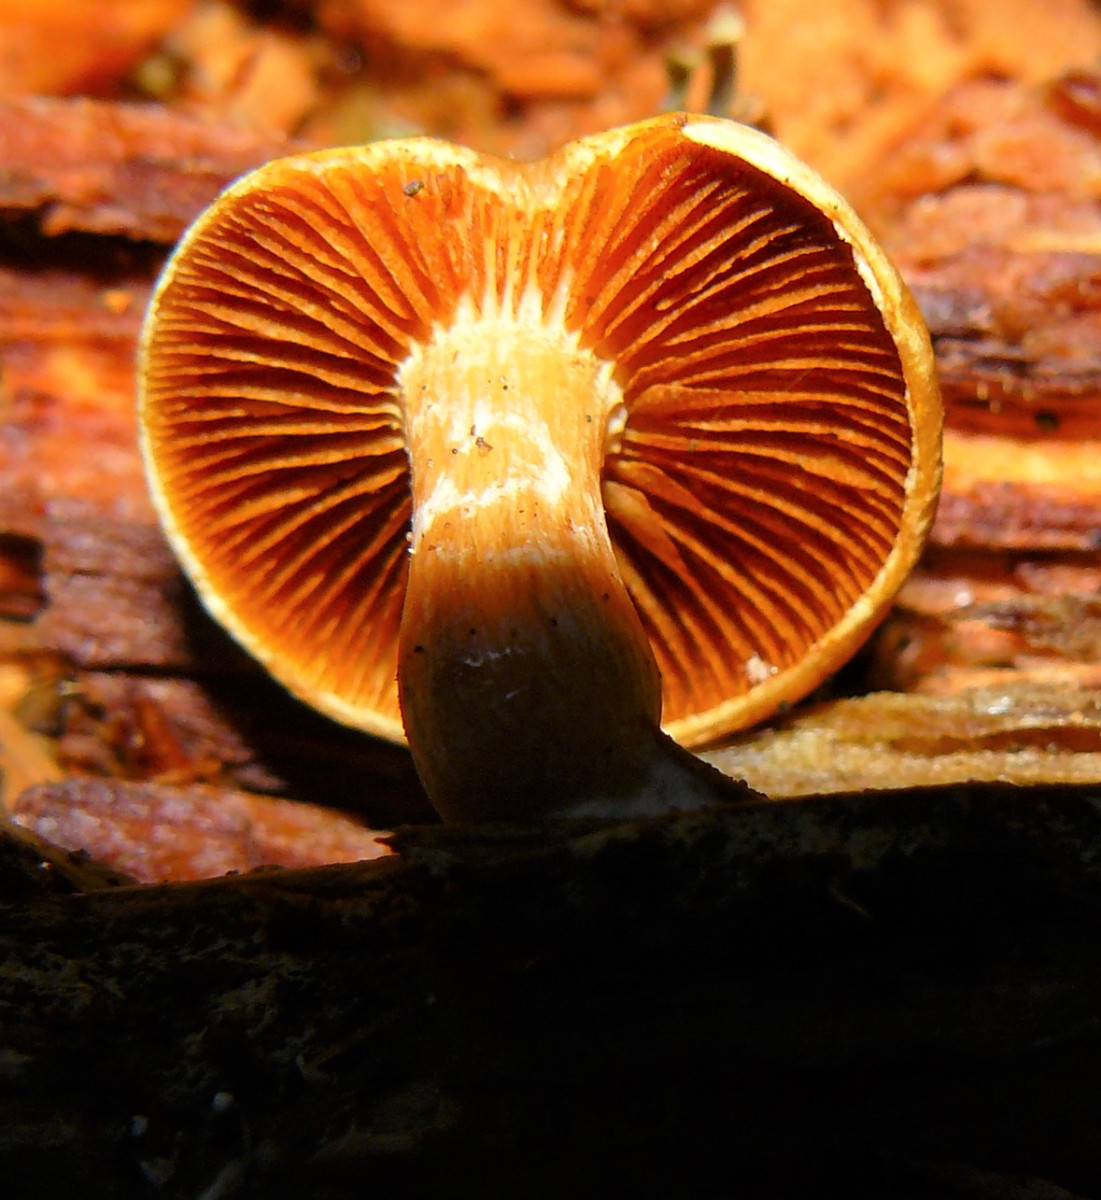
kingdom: Fungi
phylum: Basidiomycota
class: Agaricomycetes
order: Agaricales
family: Hymenogastraceae
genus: Gymnopilus
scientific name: Gymnopilus penetrans
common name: plettet flammehat
